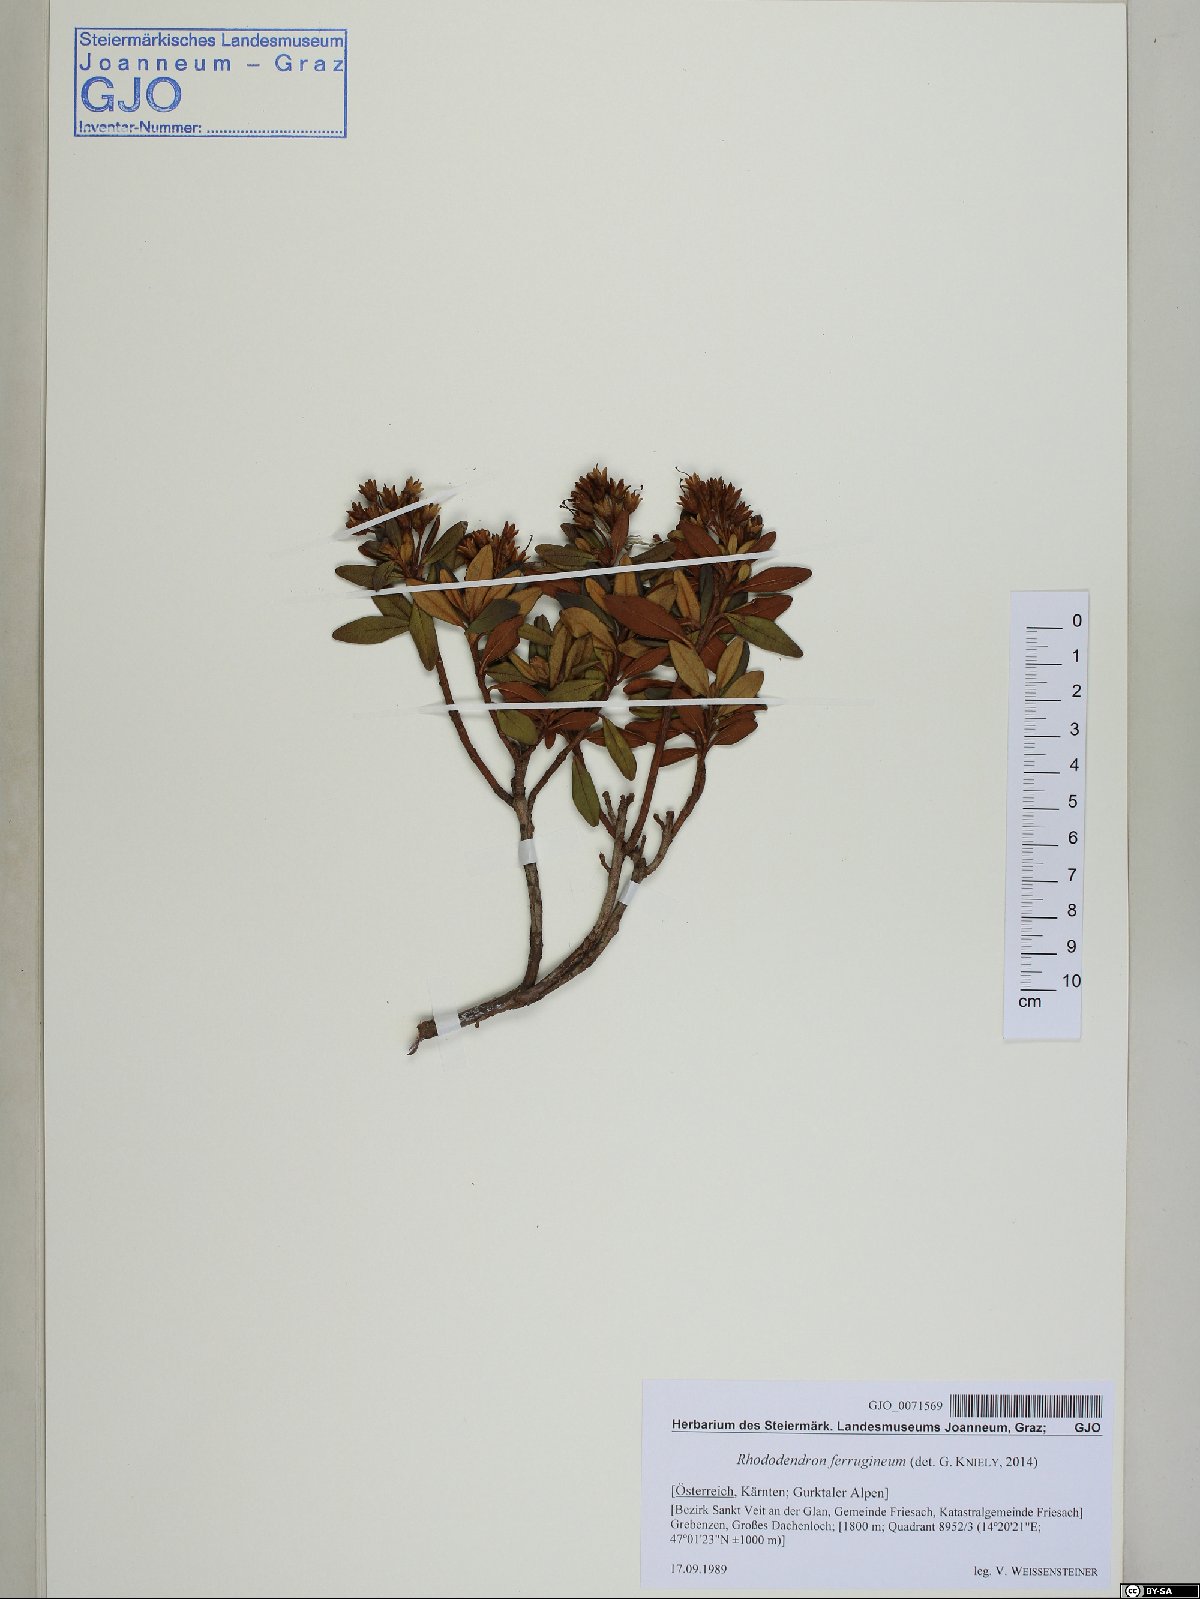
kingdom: Plantae
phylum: Tracheophyta
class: Magnoliopsida
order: Ericales
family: Ericaceae
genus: Rhododendron
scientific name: Rhododendron ferrugineum
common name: Alpenrose
